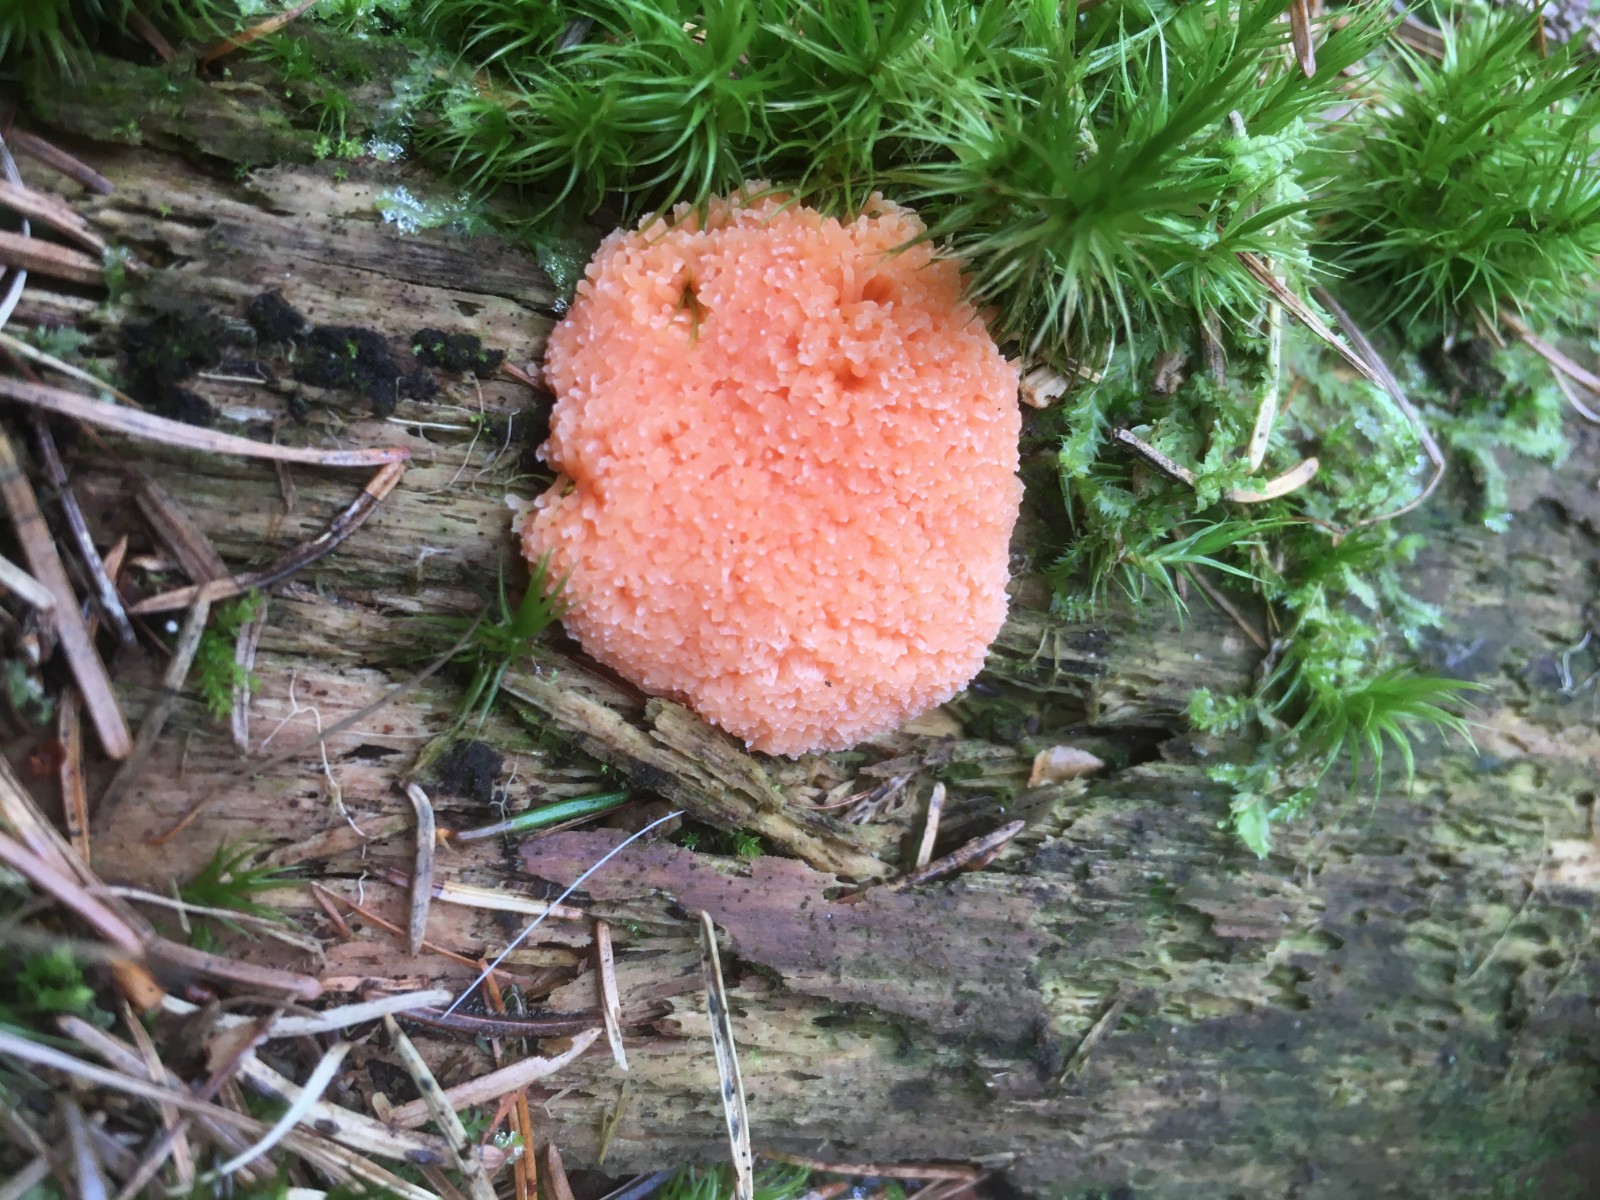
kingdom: Protozoa
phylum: Mycetozoa
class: Myxomycetes
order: Cribrariales
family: Tubiferaceae
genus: Tubifera
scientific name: Tubifera ferruginosa
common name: kanel-støvrør
